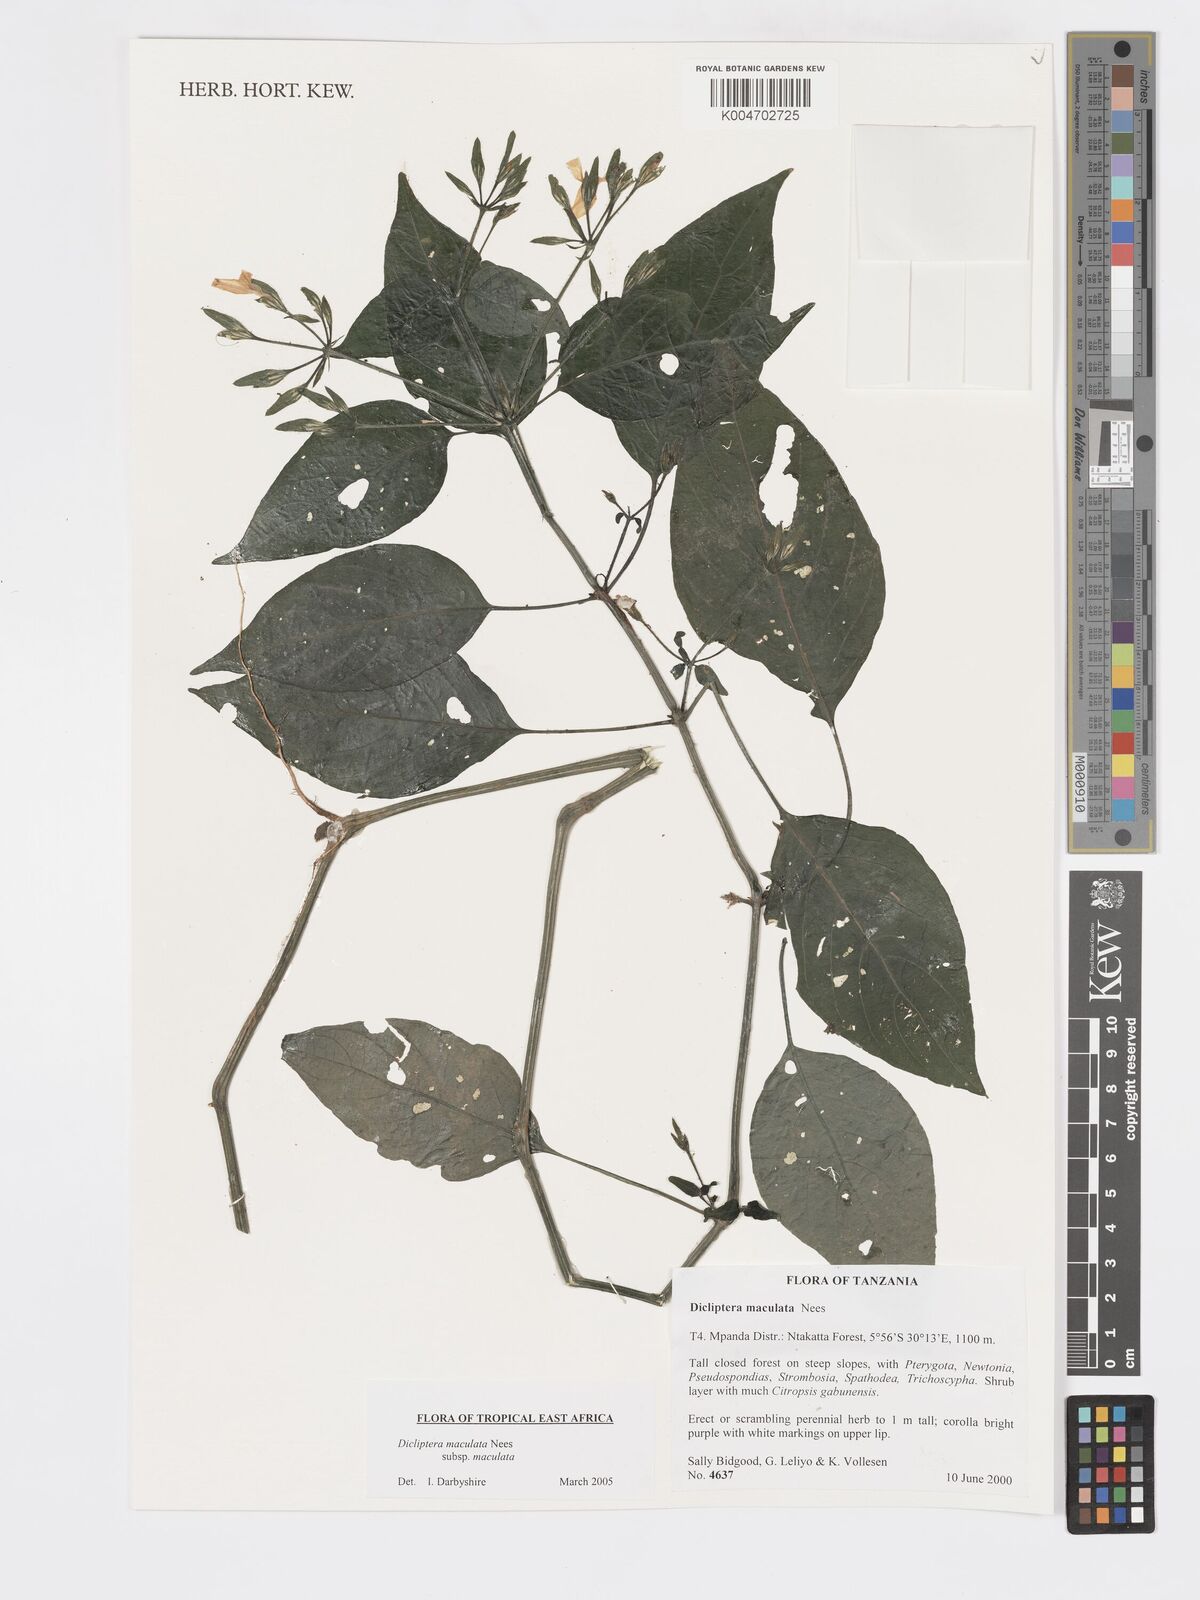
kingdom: Plantae
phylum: Tracheophyta
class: Magnoliopsida
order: Lamiales
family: Acanthaceae
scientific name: Acanthaceae
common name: Acanthaceae
